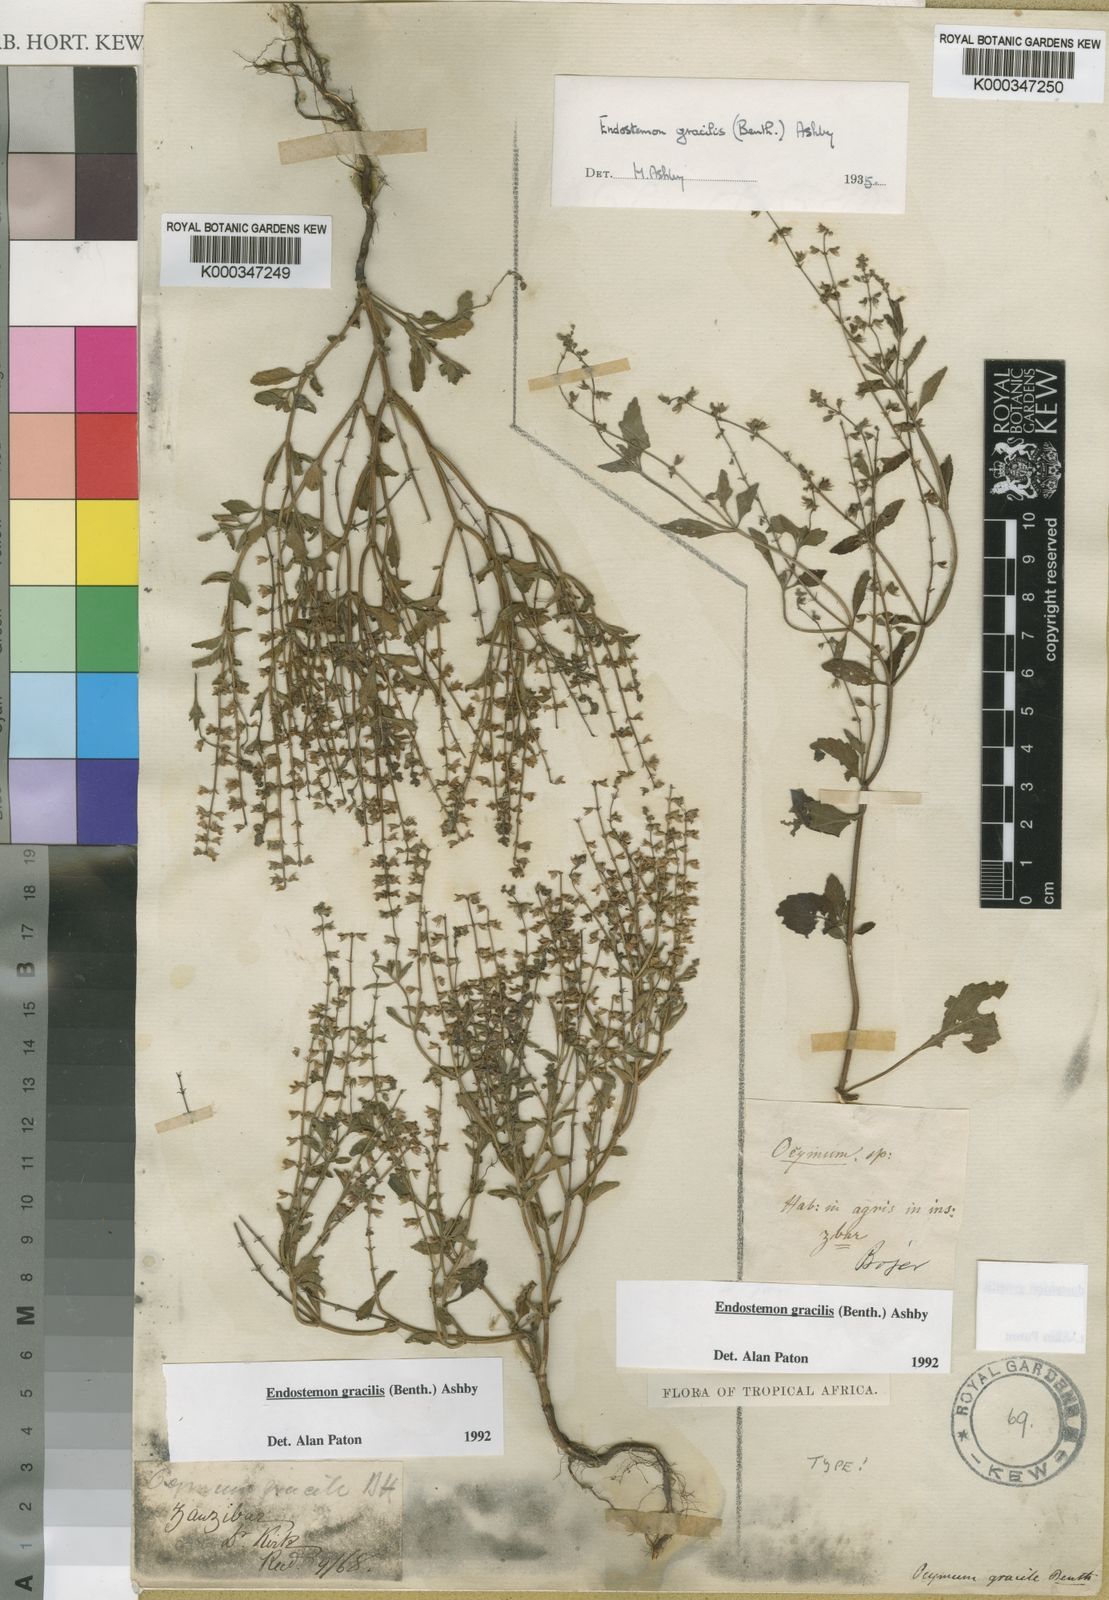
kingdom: Plantae
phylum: Tracheophyta
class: Magnoliopsida
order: Lamiales
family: Lamiaceae
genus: Endostemon
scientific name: Endostemon gracilis
